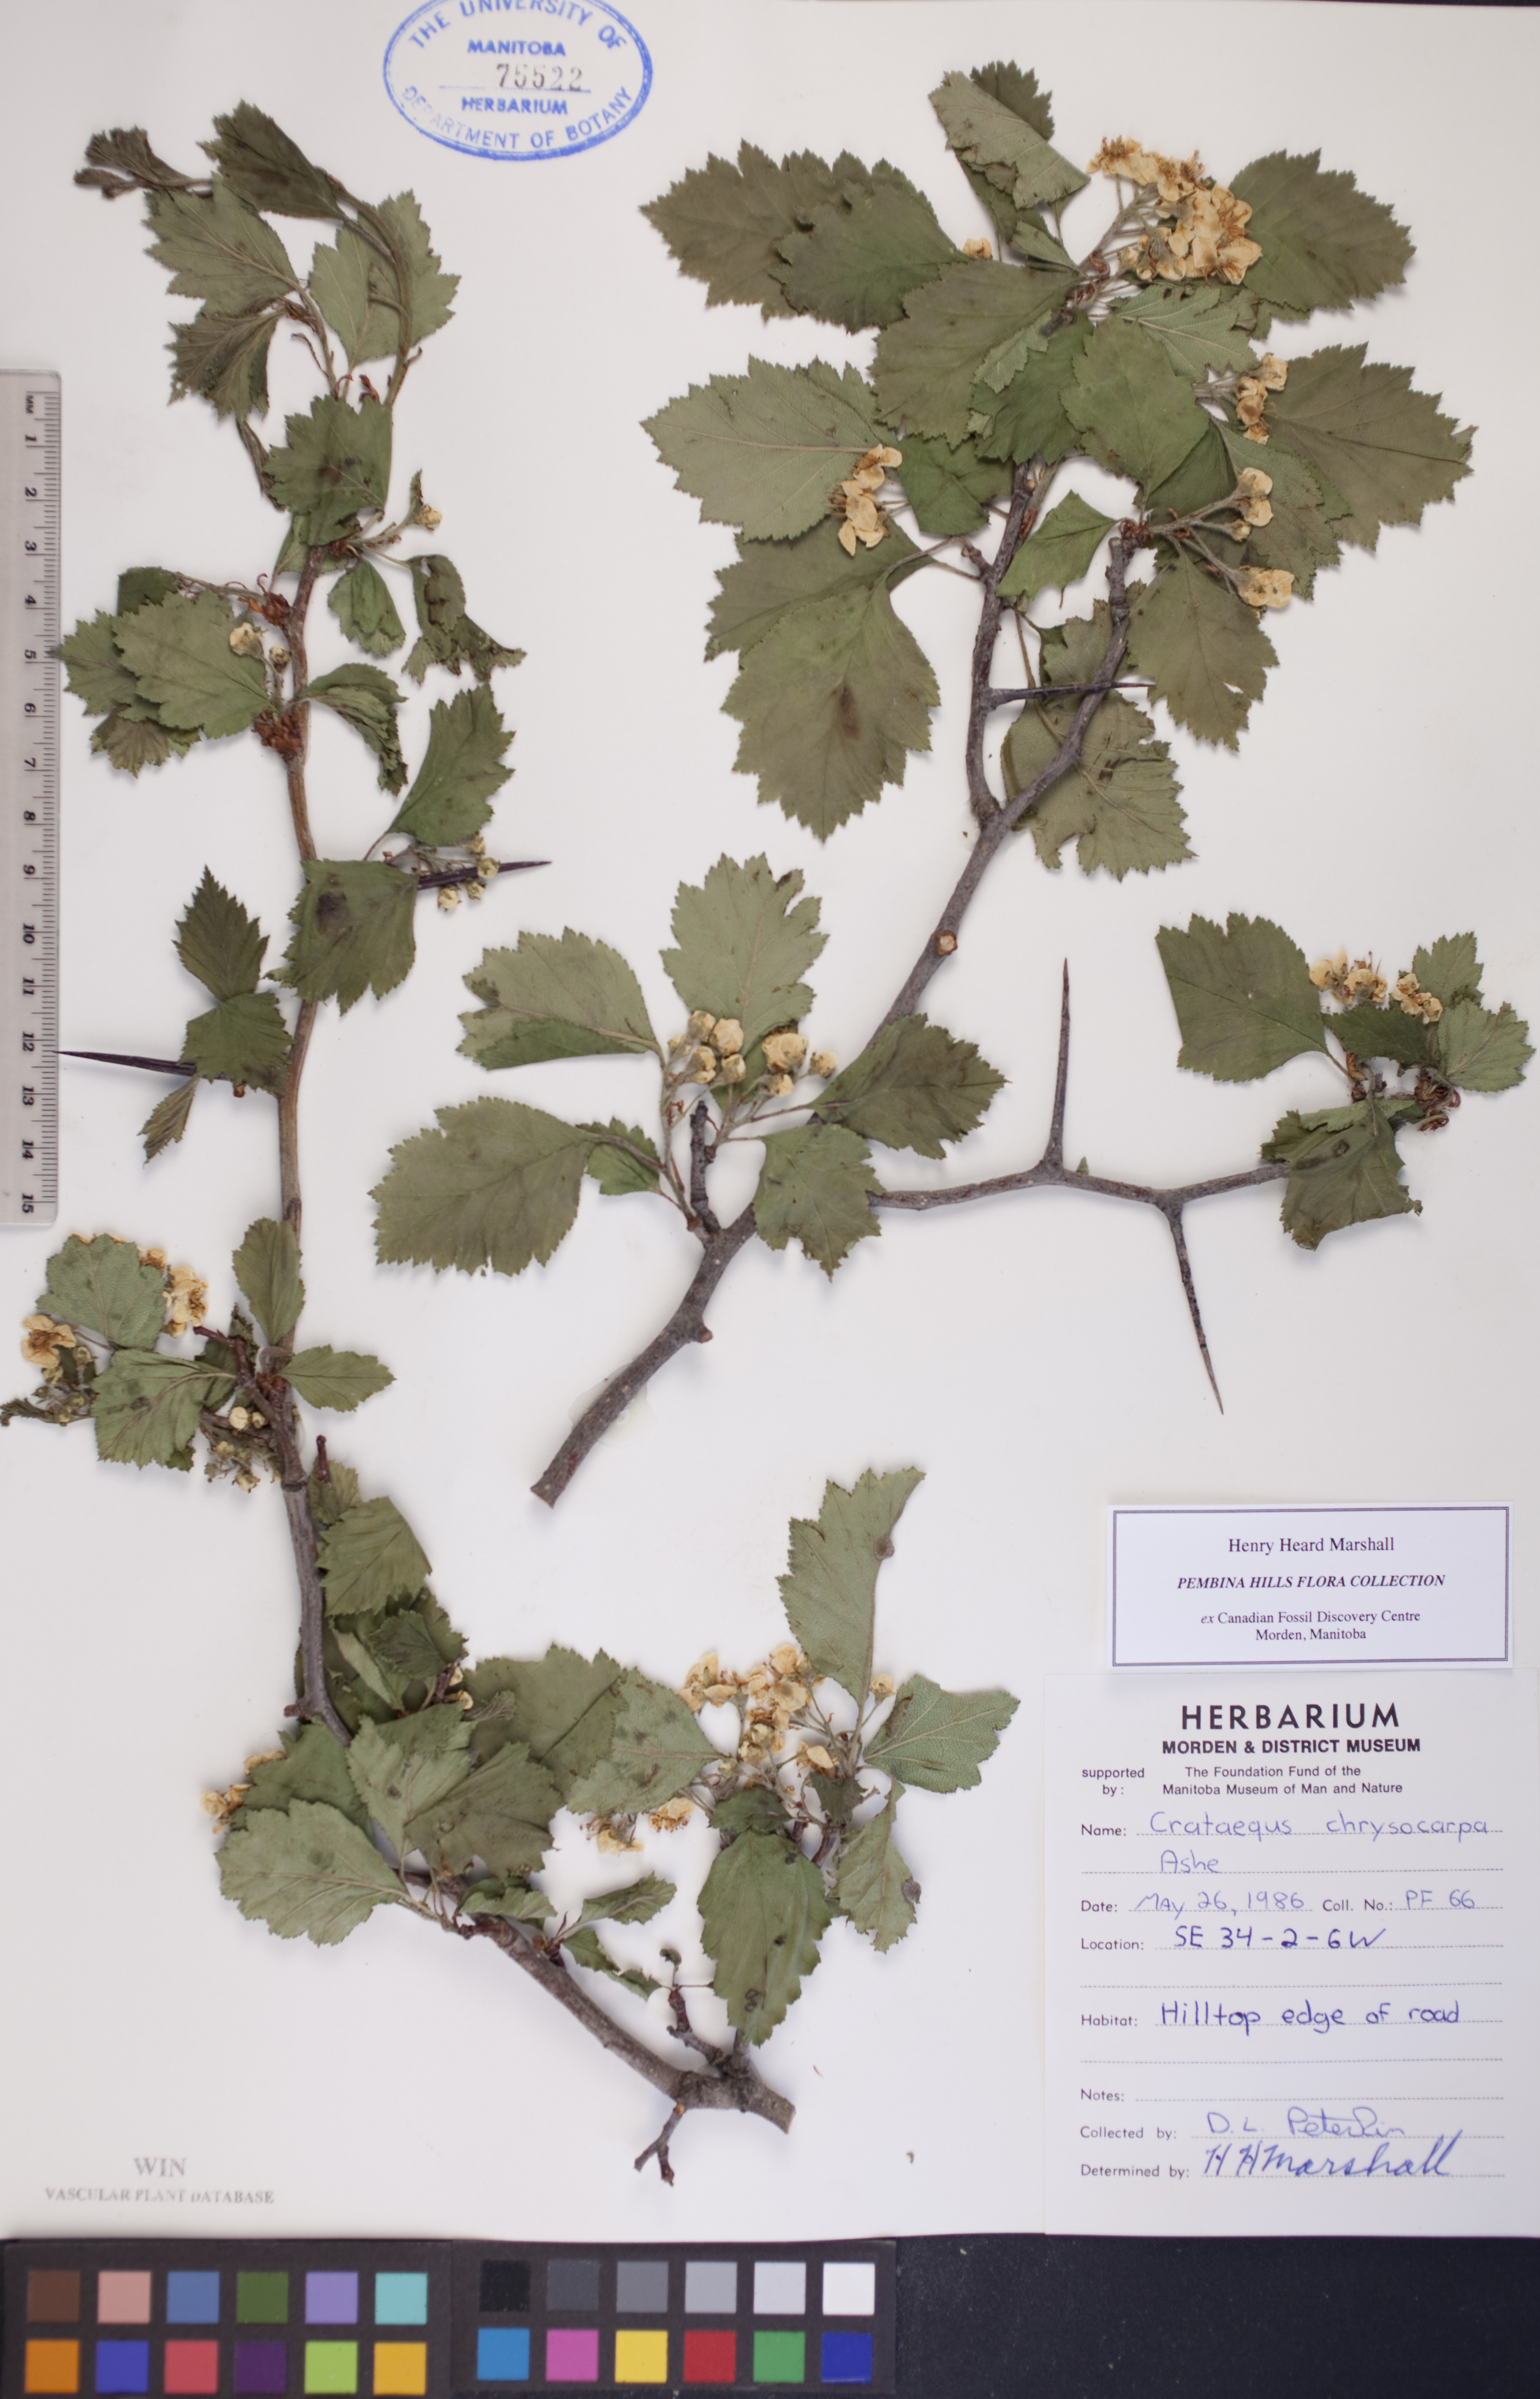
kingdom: Plantae
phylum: Tracheophyta
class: Magnoliopsida
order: Rosales
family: Rosaceae
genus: Crataegus
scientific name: Crataegus chrysocarpa
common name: Fire-berry hawthorn
